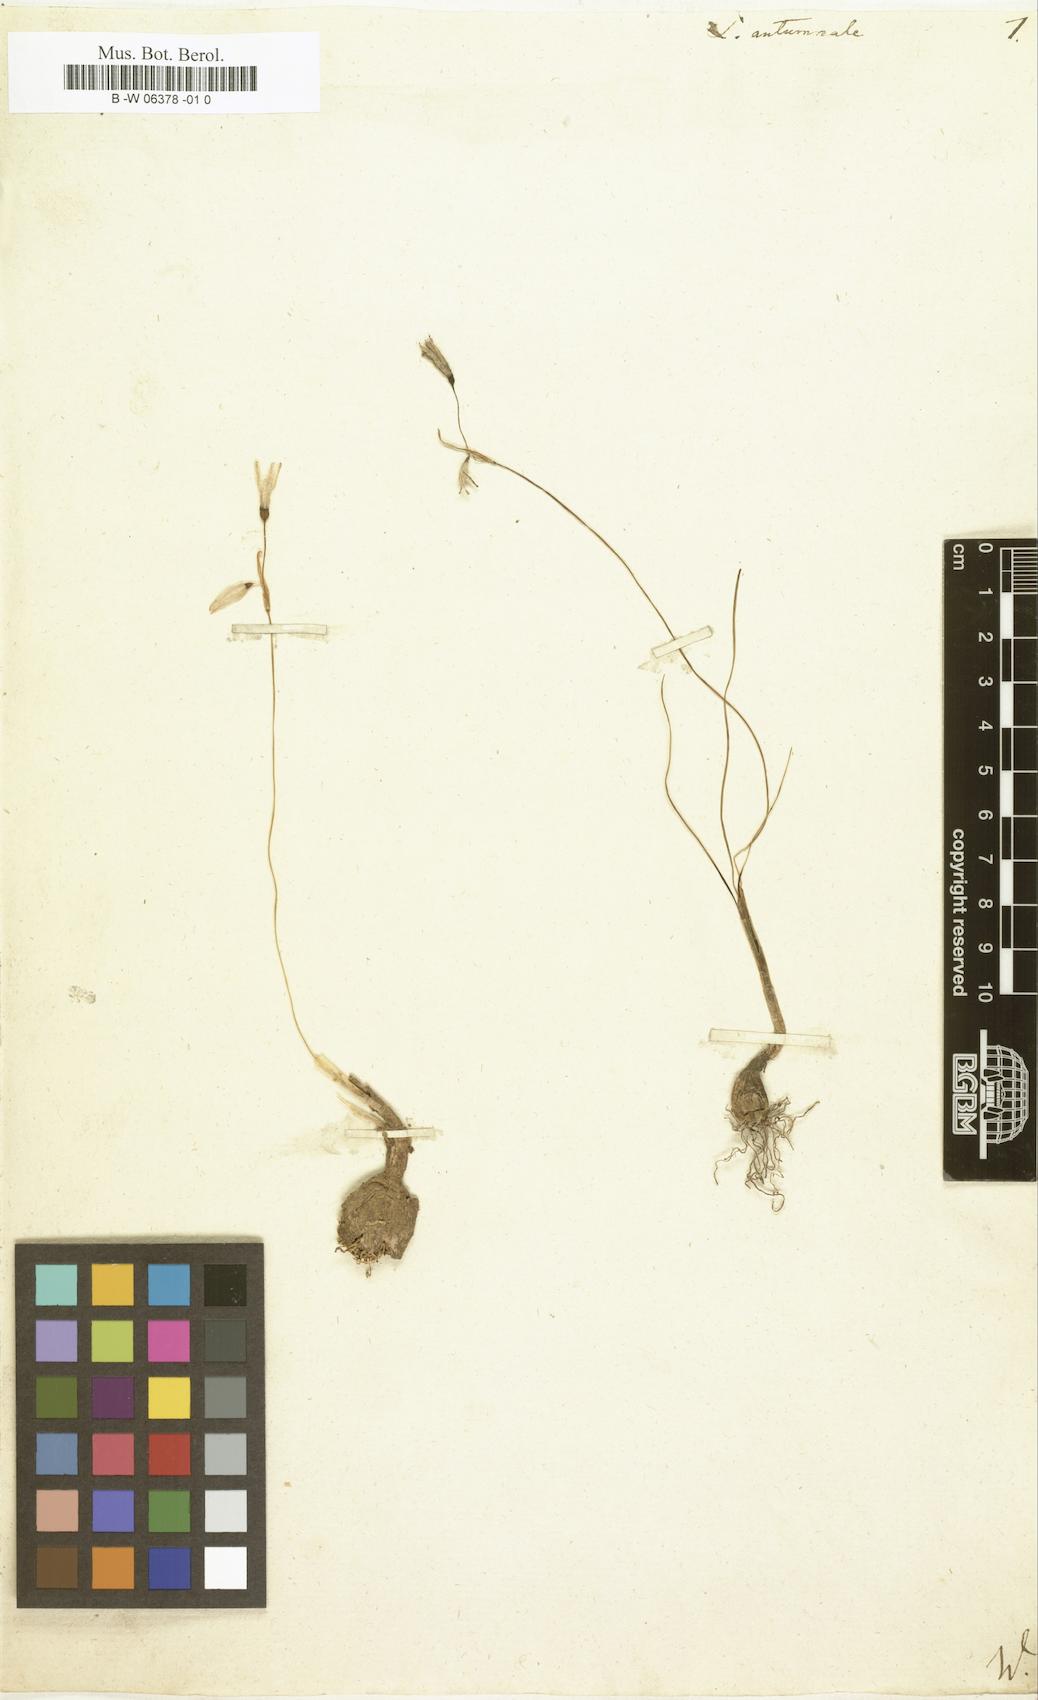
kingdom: Plantae
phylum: Tracheophyta
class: Liliopsida
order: Asparagales
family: Amaryllidaceae
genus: Leucojum
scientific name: Leucojum autumnale
